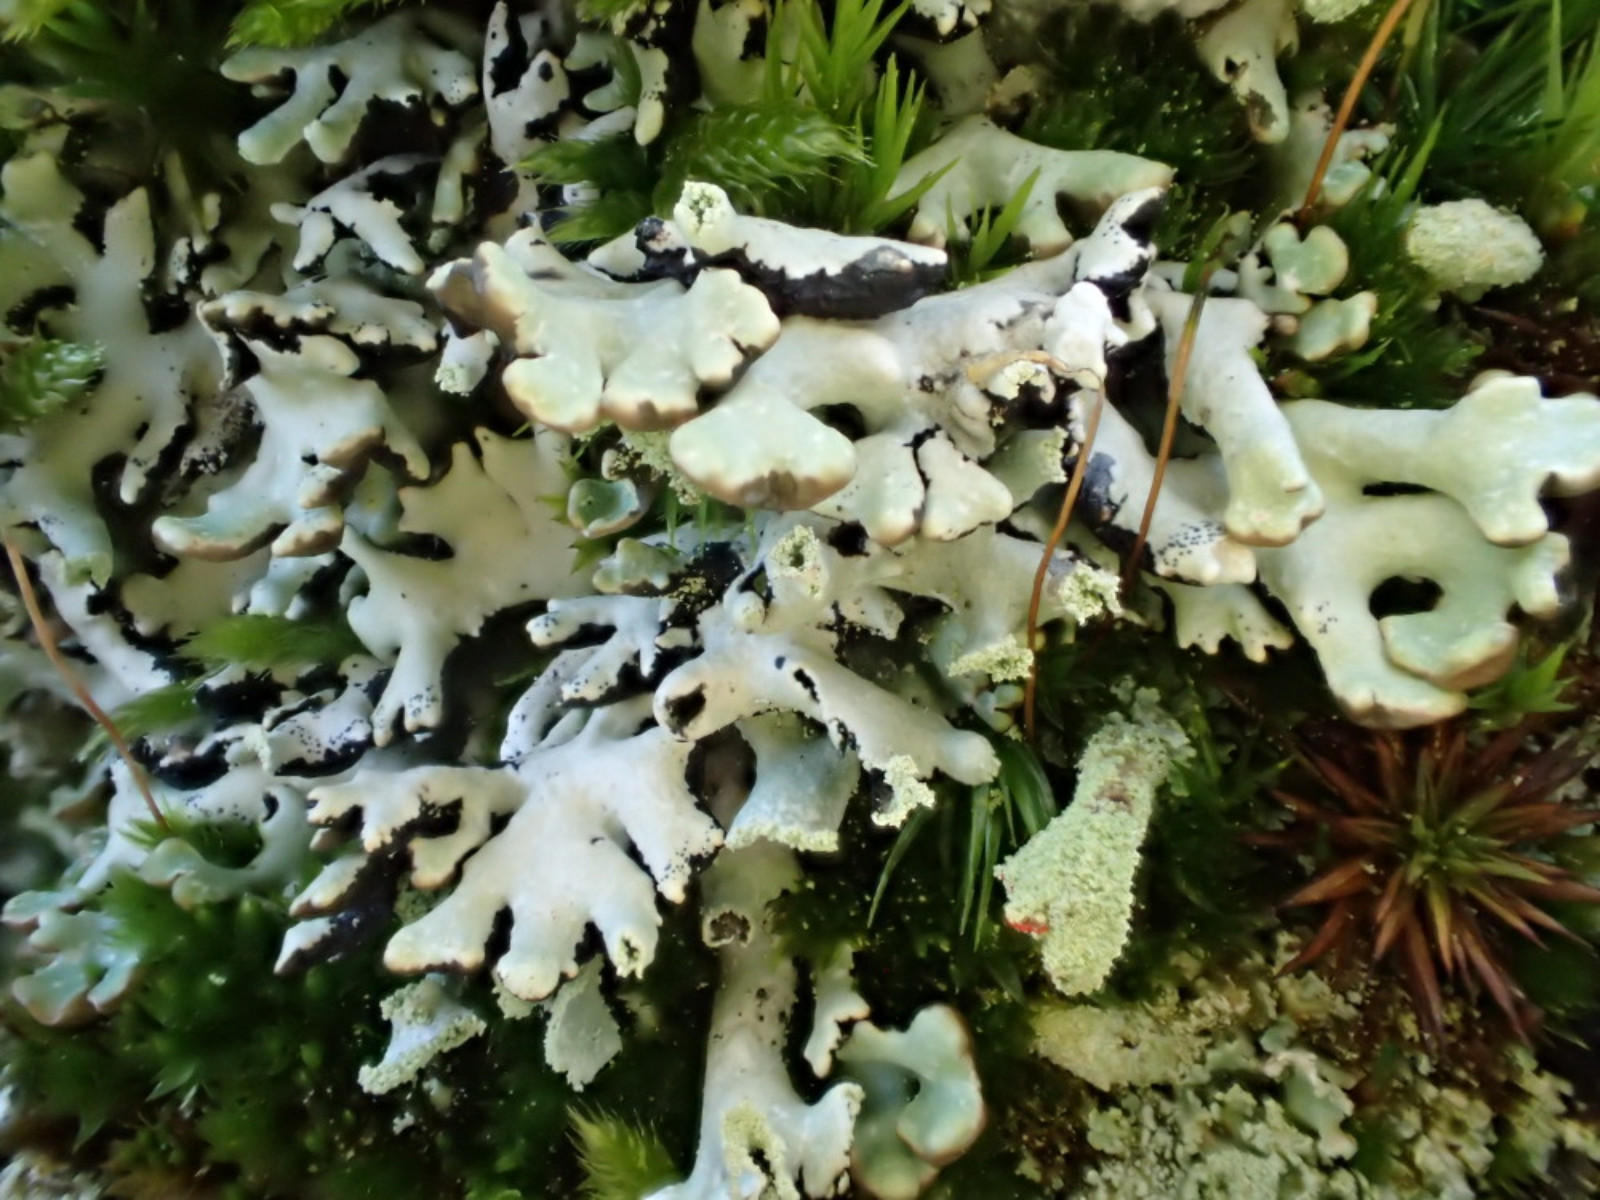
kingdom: Fungi
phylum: Ascomycota
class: Lecanoromycetes
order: Lecanorales
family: Parmeliaceae
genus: Hypogymnia
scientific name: Hypogymnia physodes
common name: almindelig kvistlav
